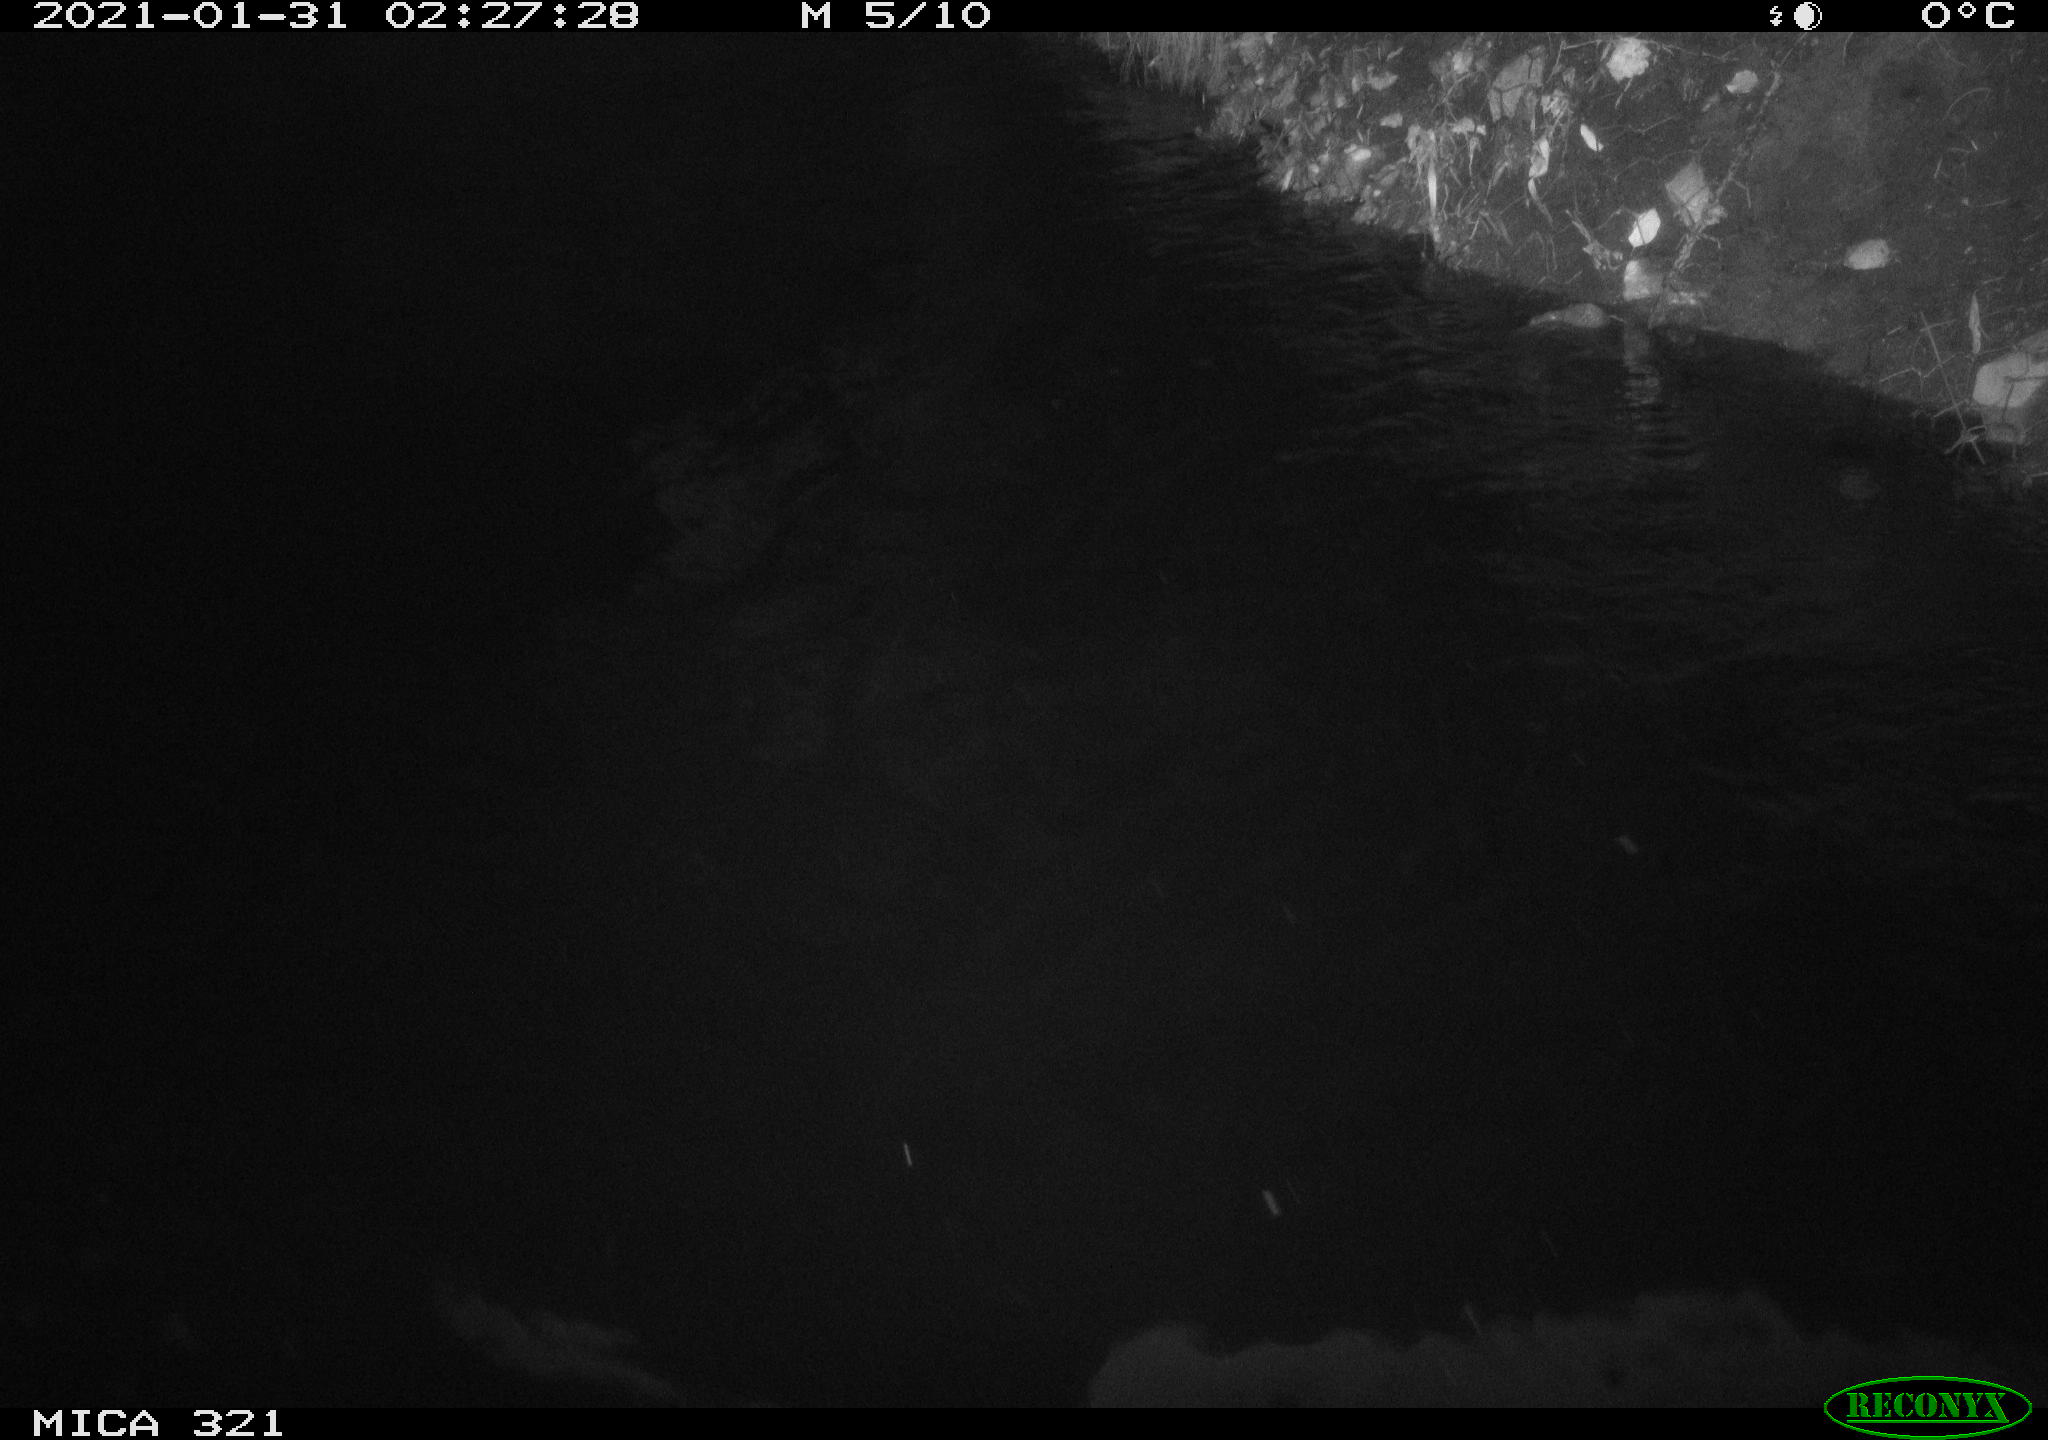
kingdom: Animalia
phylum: Chordata
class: Aves
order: Anseriformes
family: Anatidae
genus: Anas
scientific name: Anas platyrhynchos
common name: Mallard
